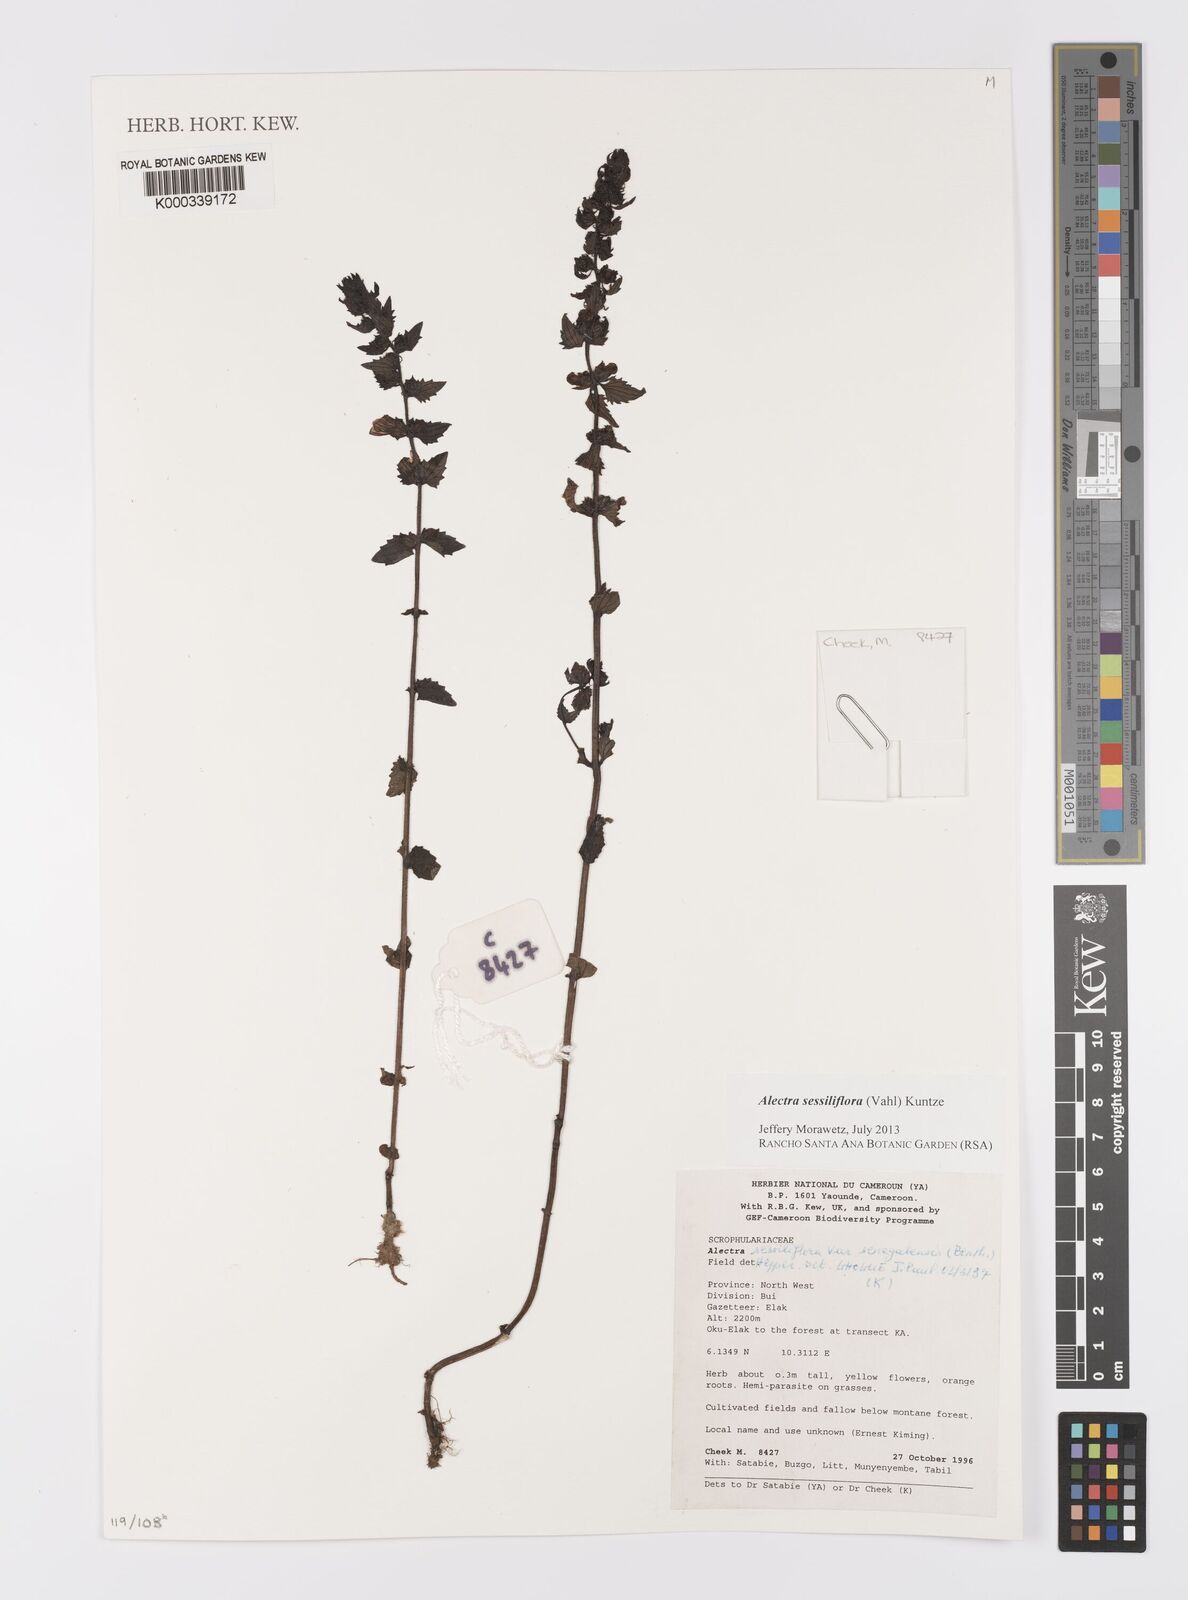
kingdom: Plantae
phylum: Tracheophyta
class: Magnoliopsida
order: Lamiales
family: Orobanchaceae
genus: Alectra
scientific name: Alectra sessiliflora
